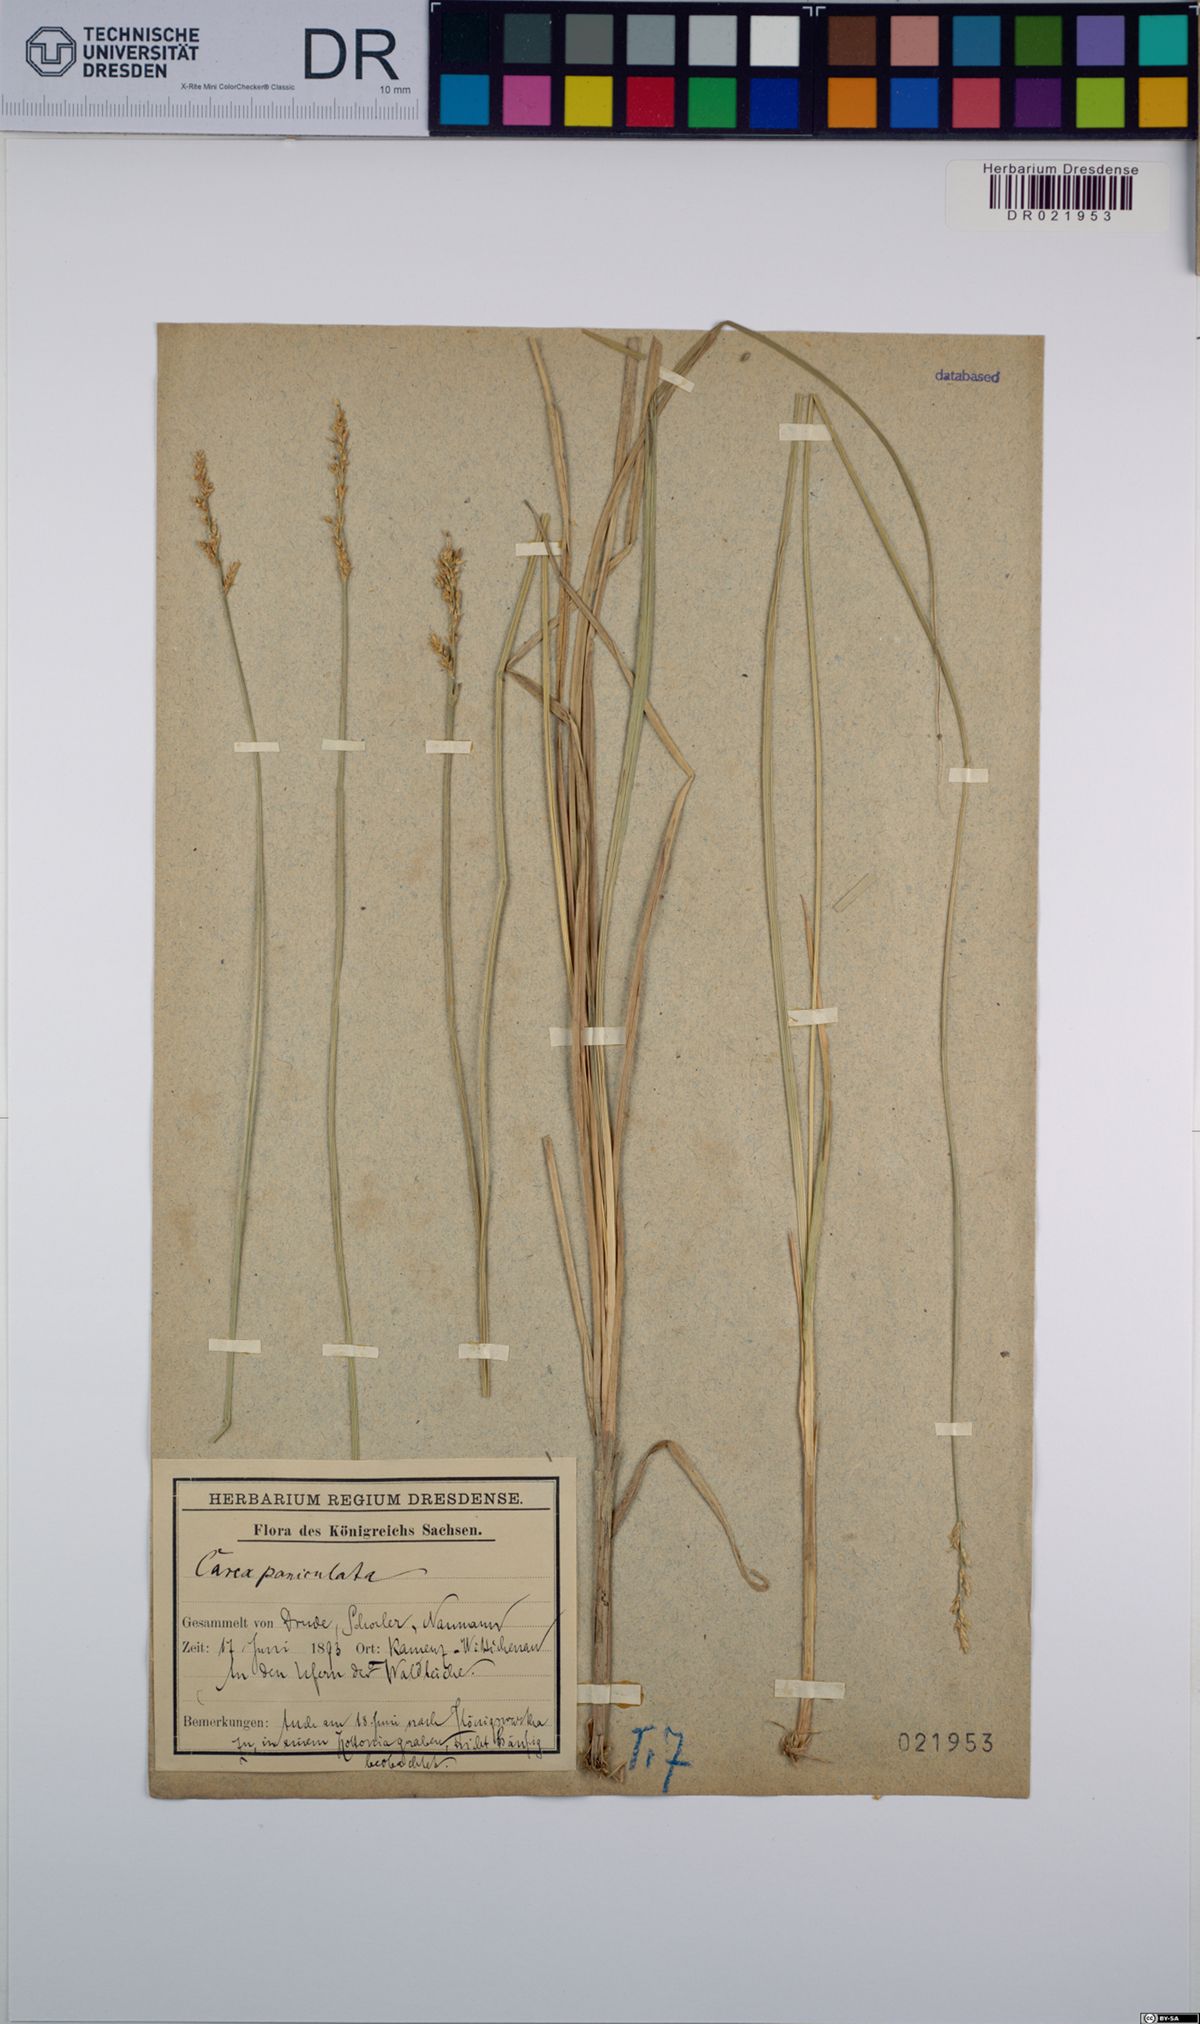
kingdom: Plantae
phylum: Tracheophyta
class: Liliopsida
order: Poales
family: Cyperaceae
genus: Carex
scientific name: Carex paniculata
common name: Greater tussock-sedge
